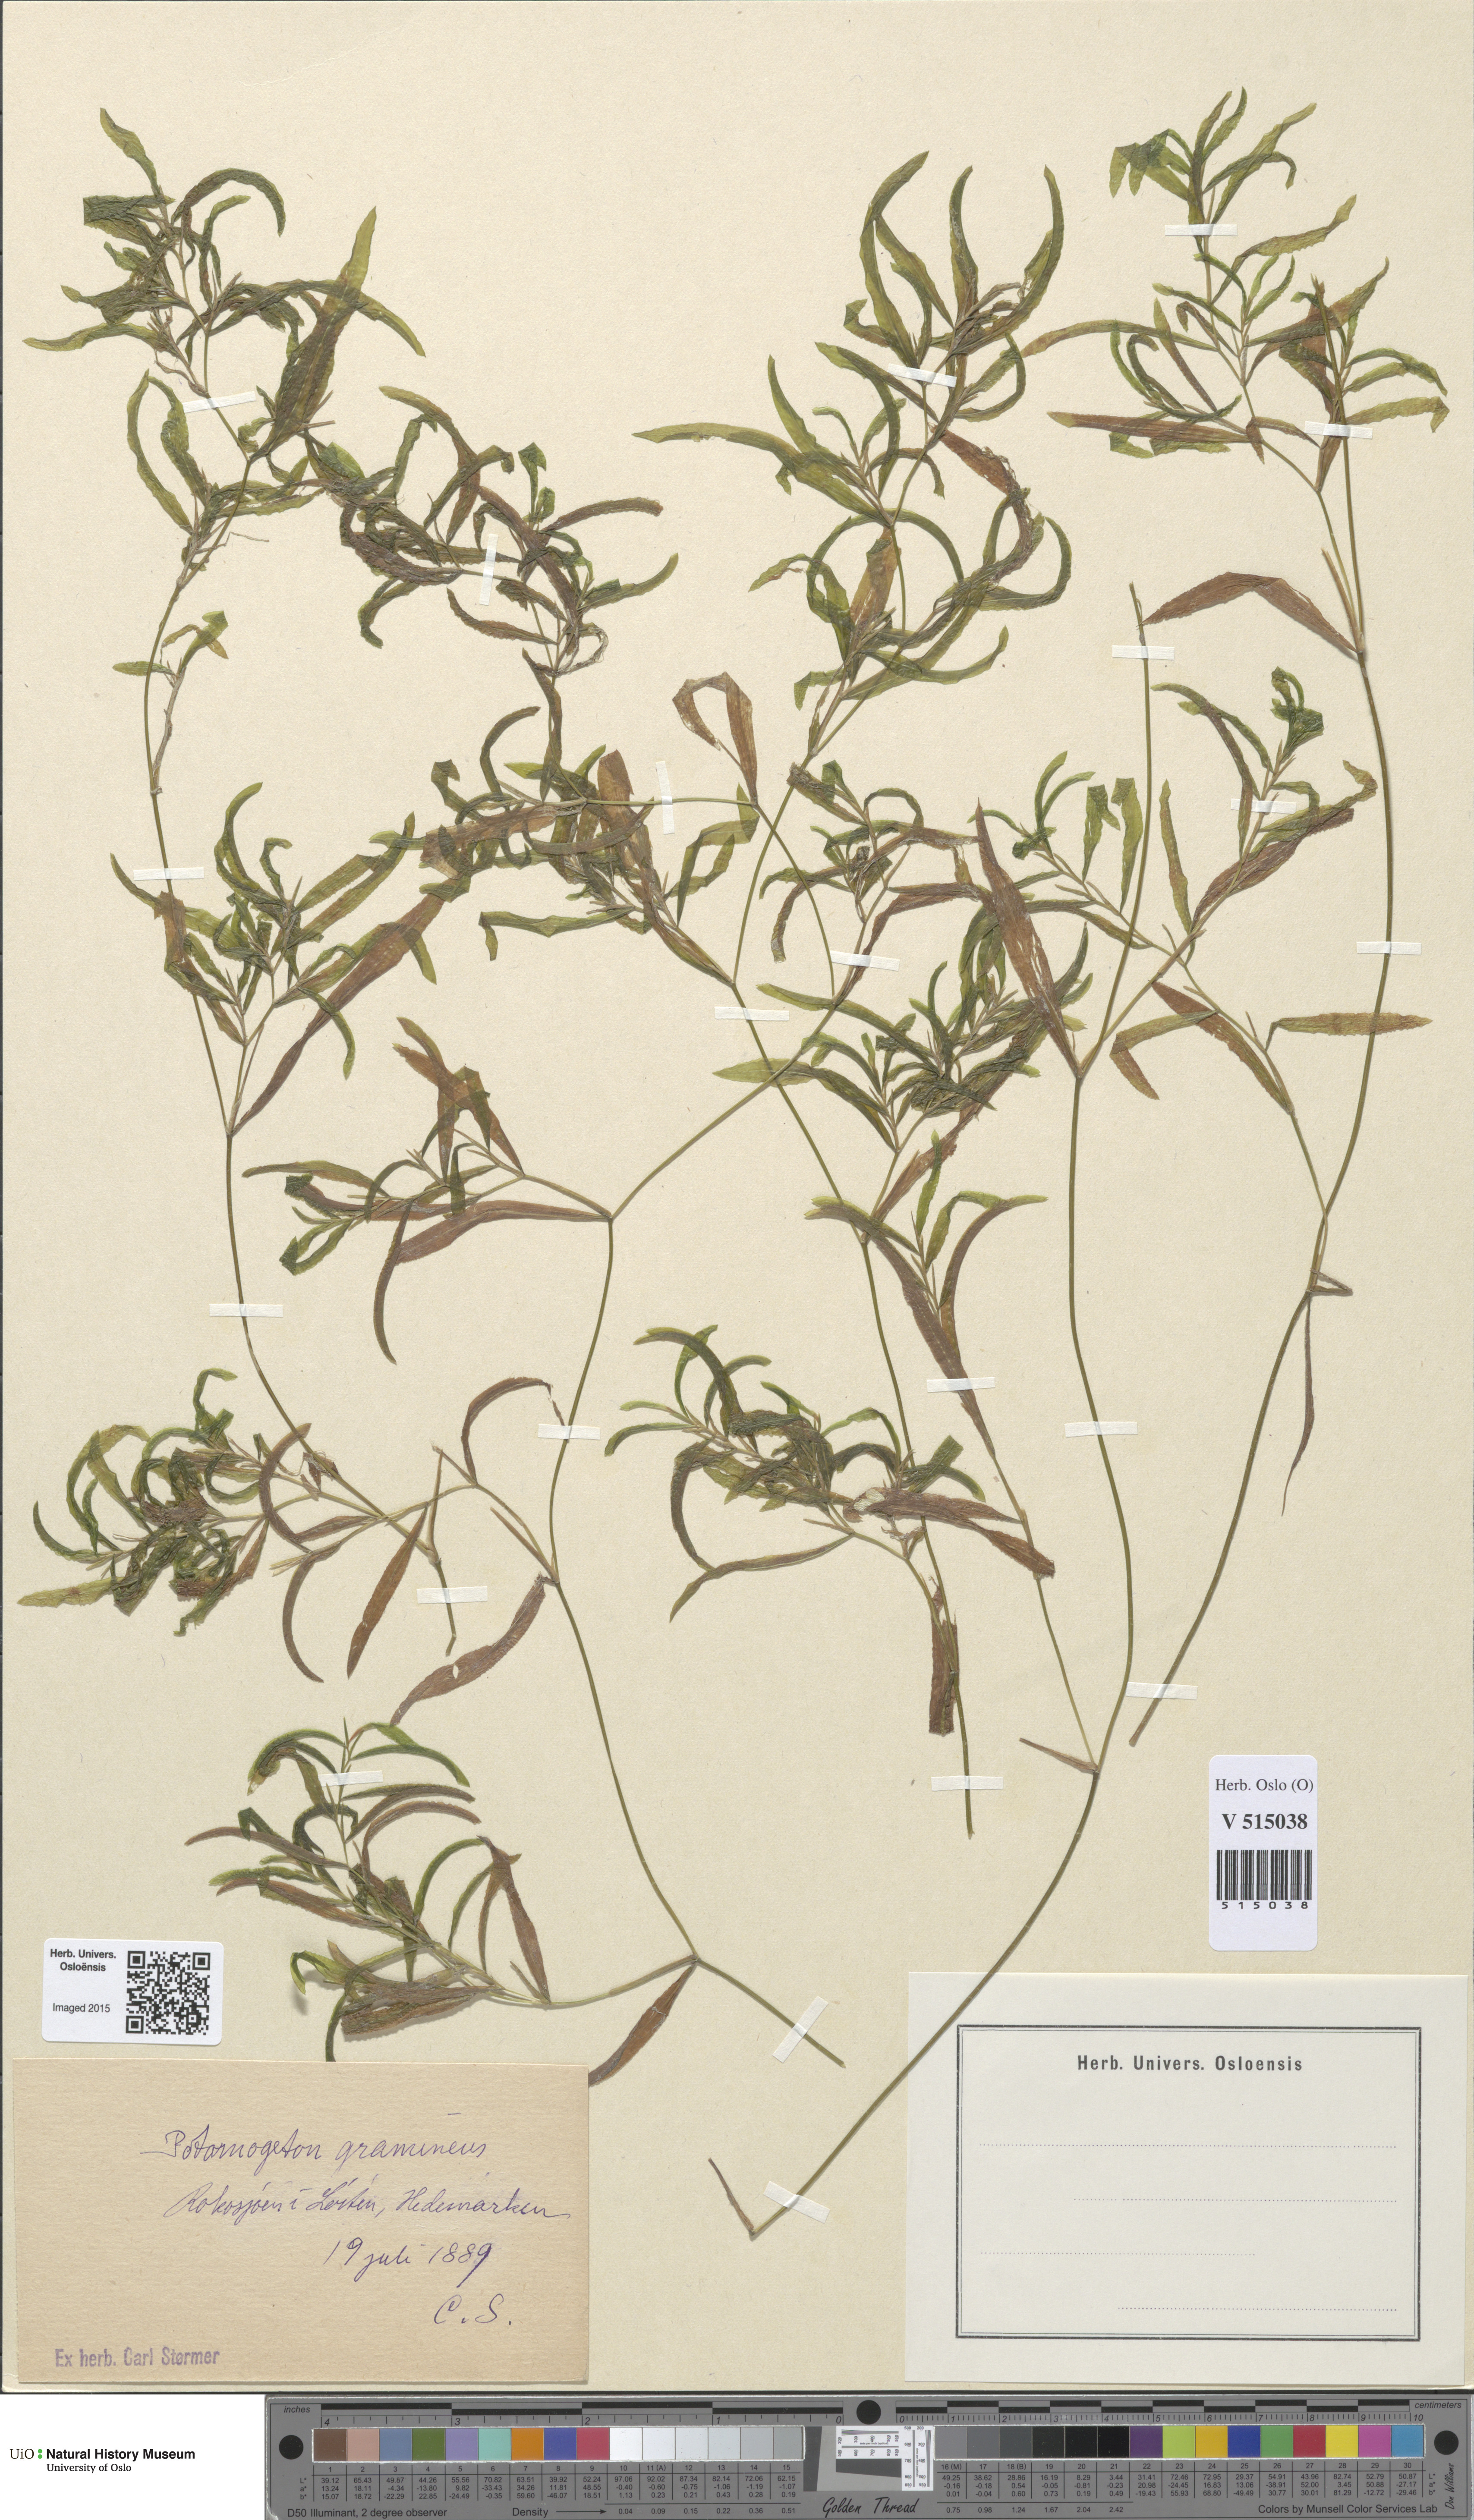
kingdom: Plantae
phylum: Tracheophyta
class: Liliopsida
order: Alismatales
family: Potamogetonaceae
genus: Potamogeton
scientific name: Potamogeton gramineus
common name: Various-leaved pondweed
